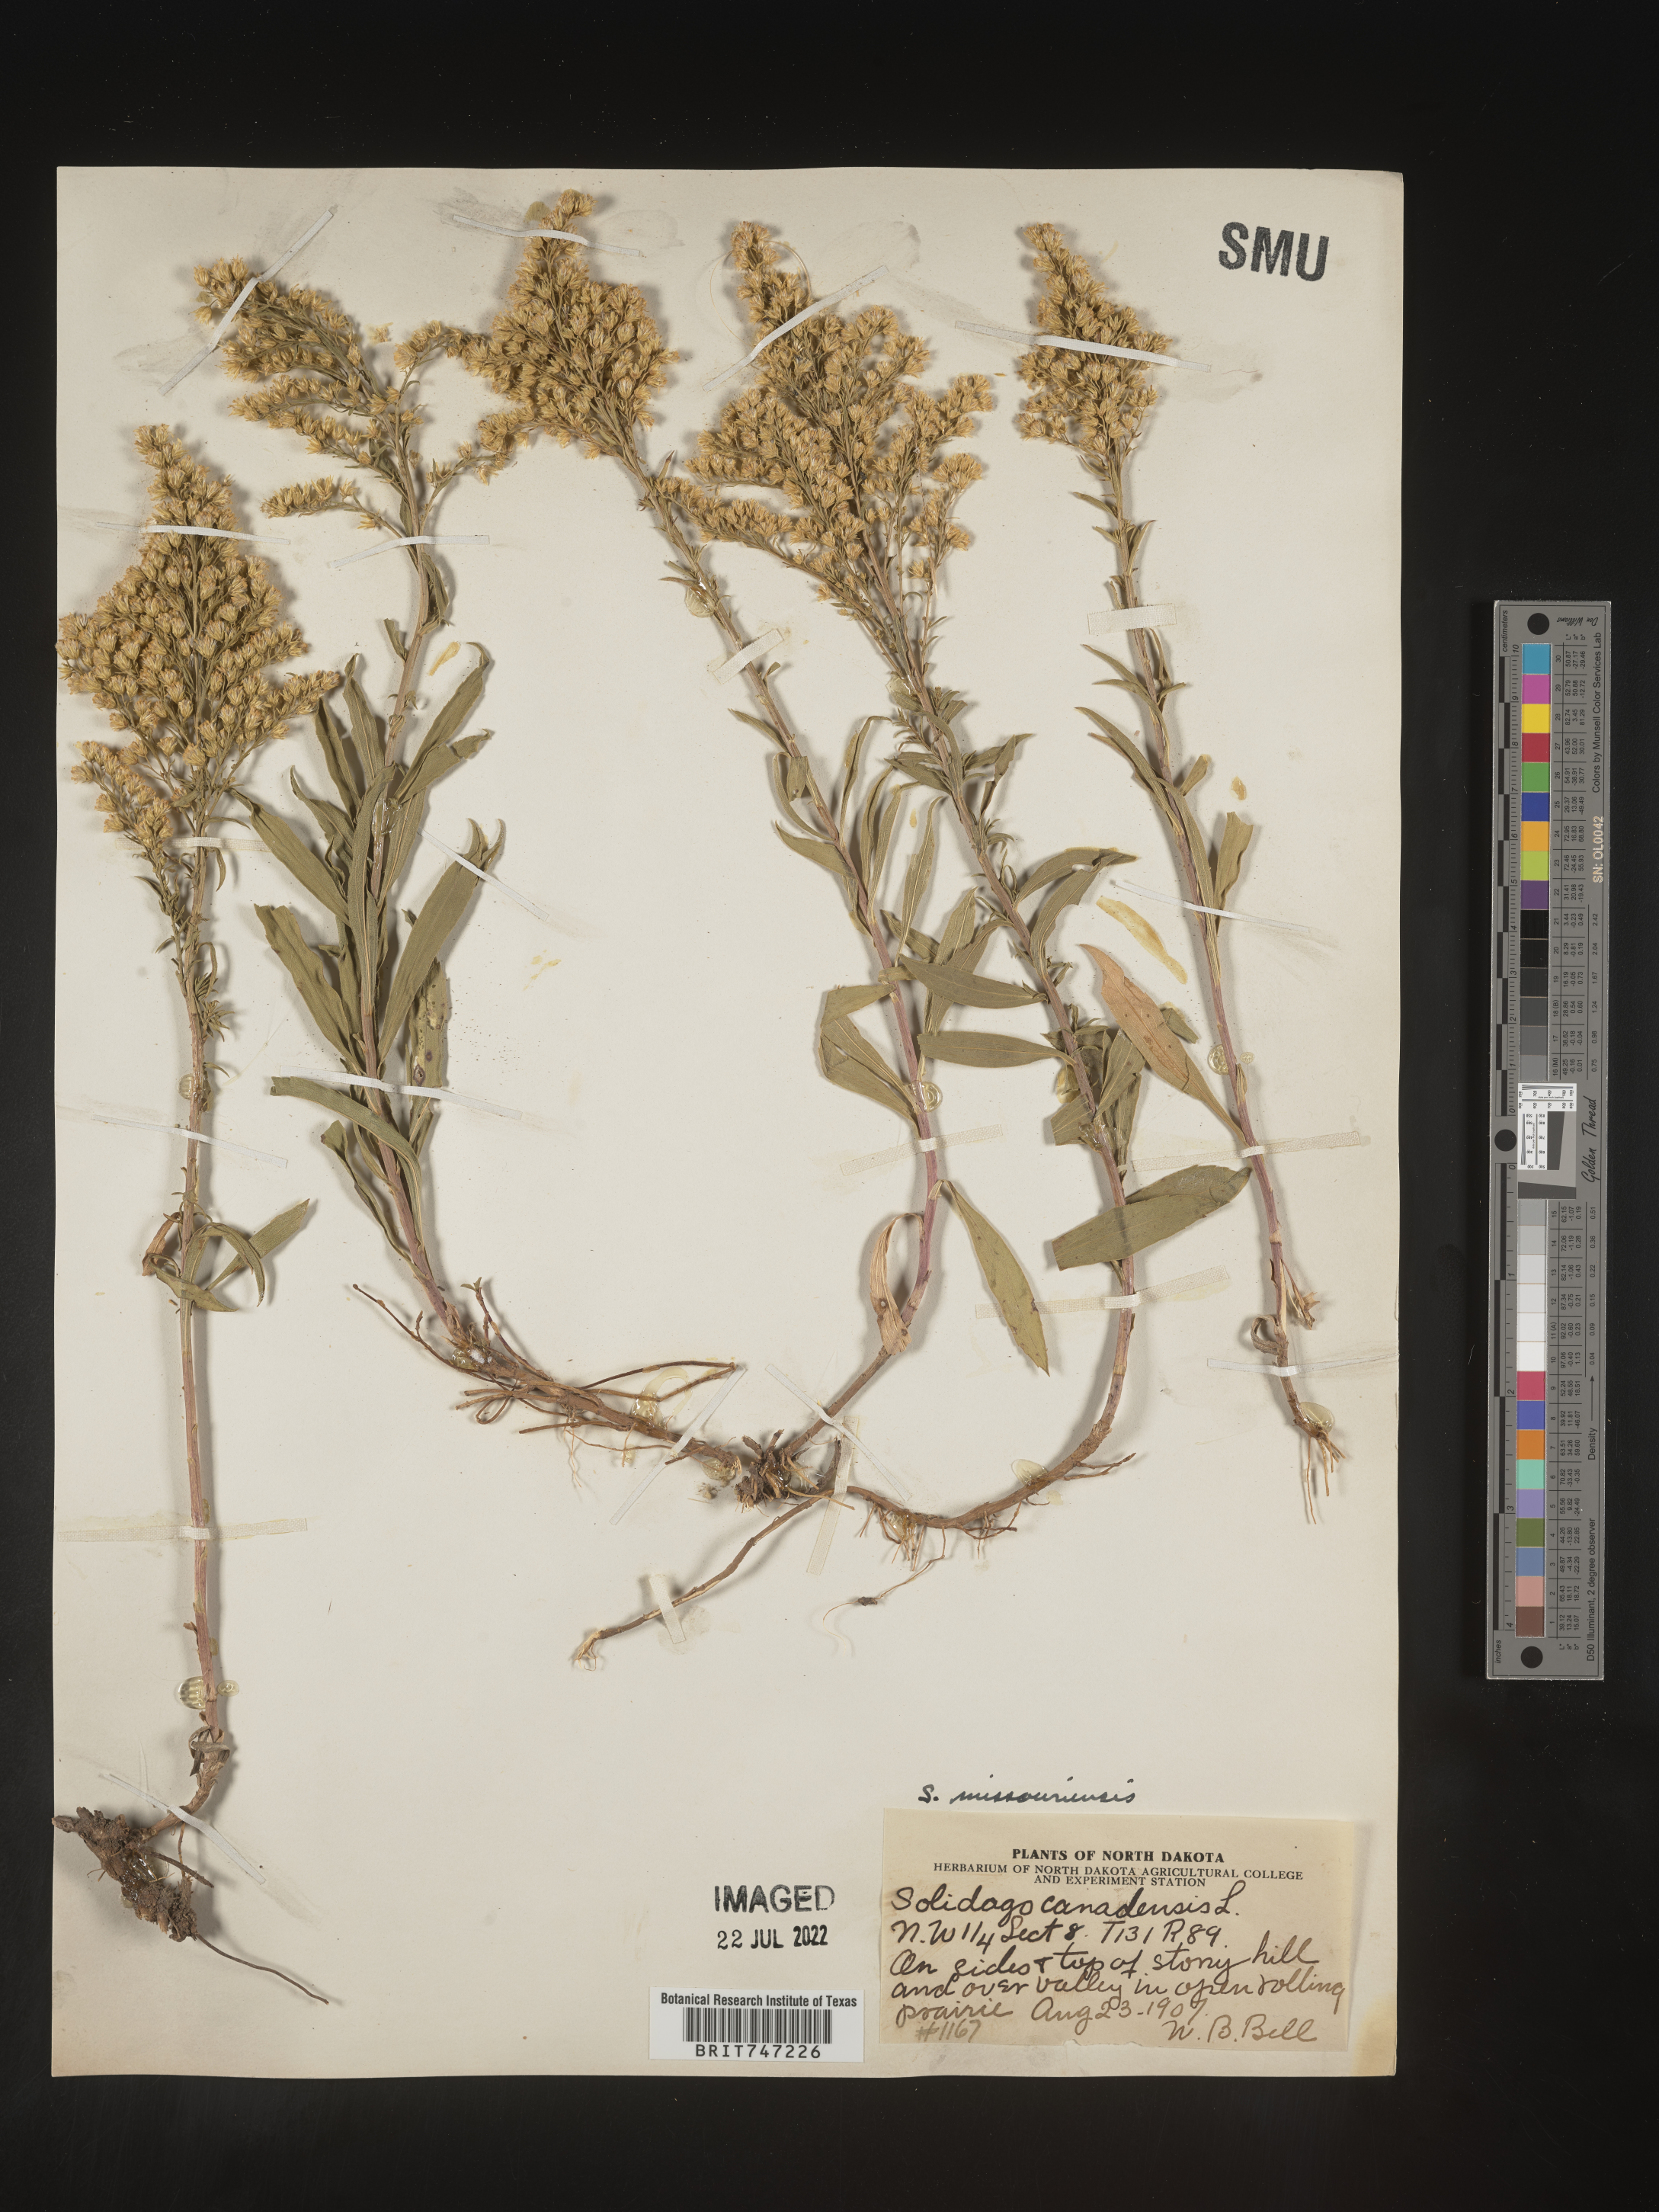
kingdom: Plantae
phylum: Tracheophyta
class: Magnoliopsida
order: Asterales
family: Asteraceae
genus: Solidago
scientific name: Solidago missouriensis
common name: Prairie goldenrod
